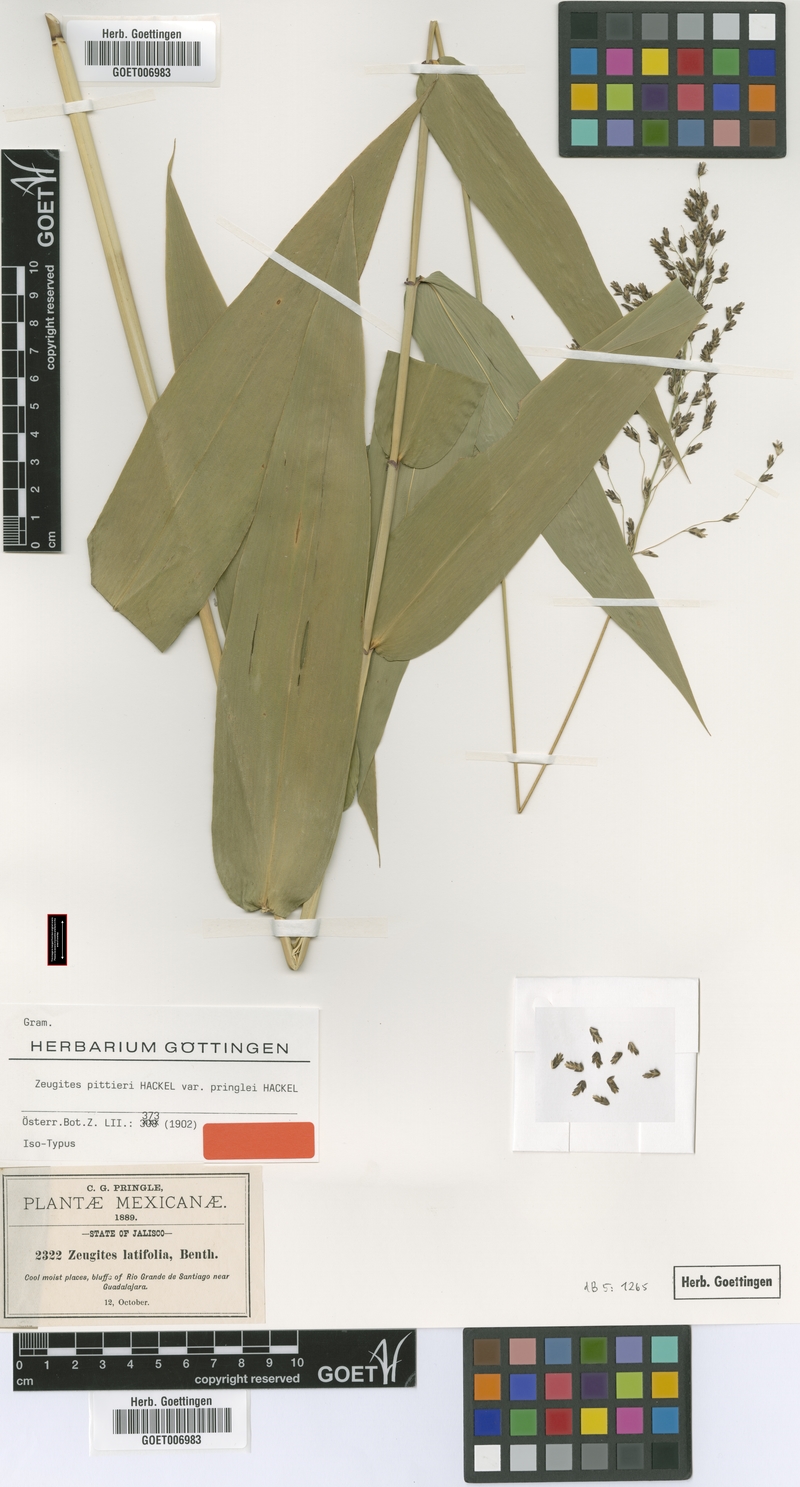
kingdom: Plantae
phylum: Tracheophyta
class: Liliopsida
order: Poales
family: Poaceae
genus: Zeugites
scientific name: Zeugites pittieri
